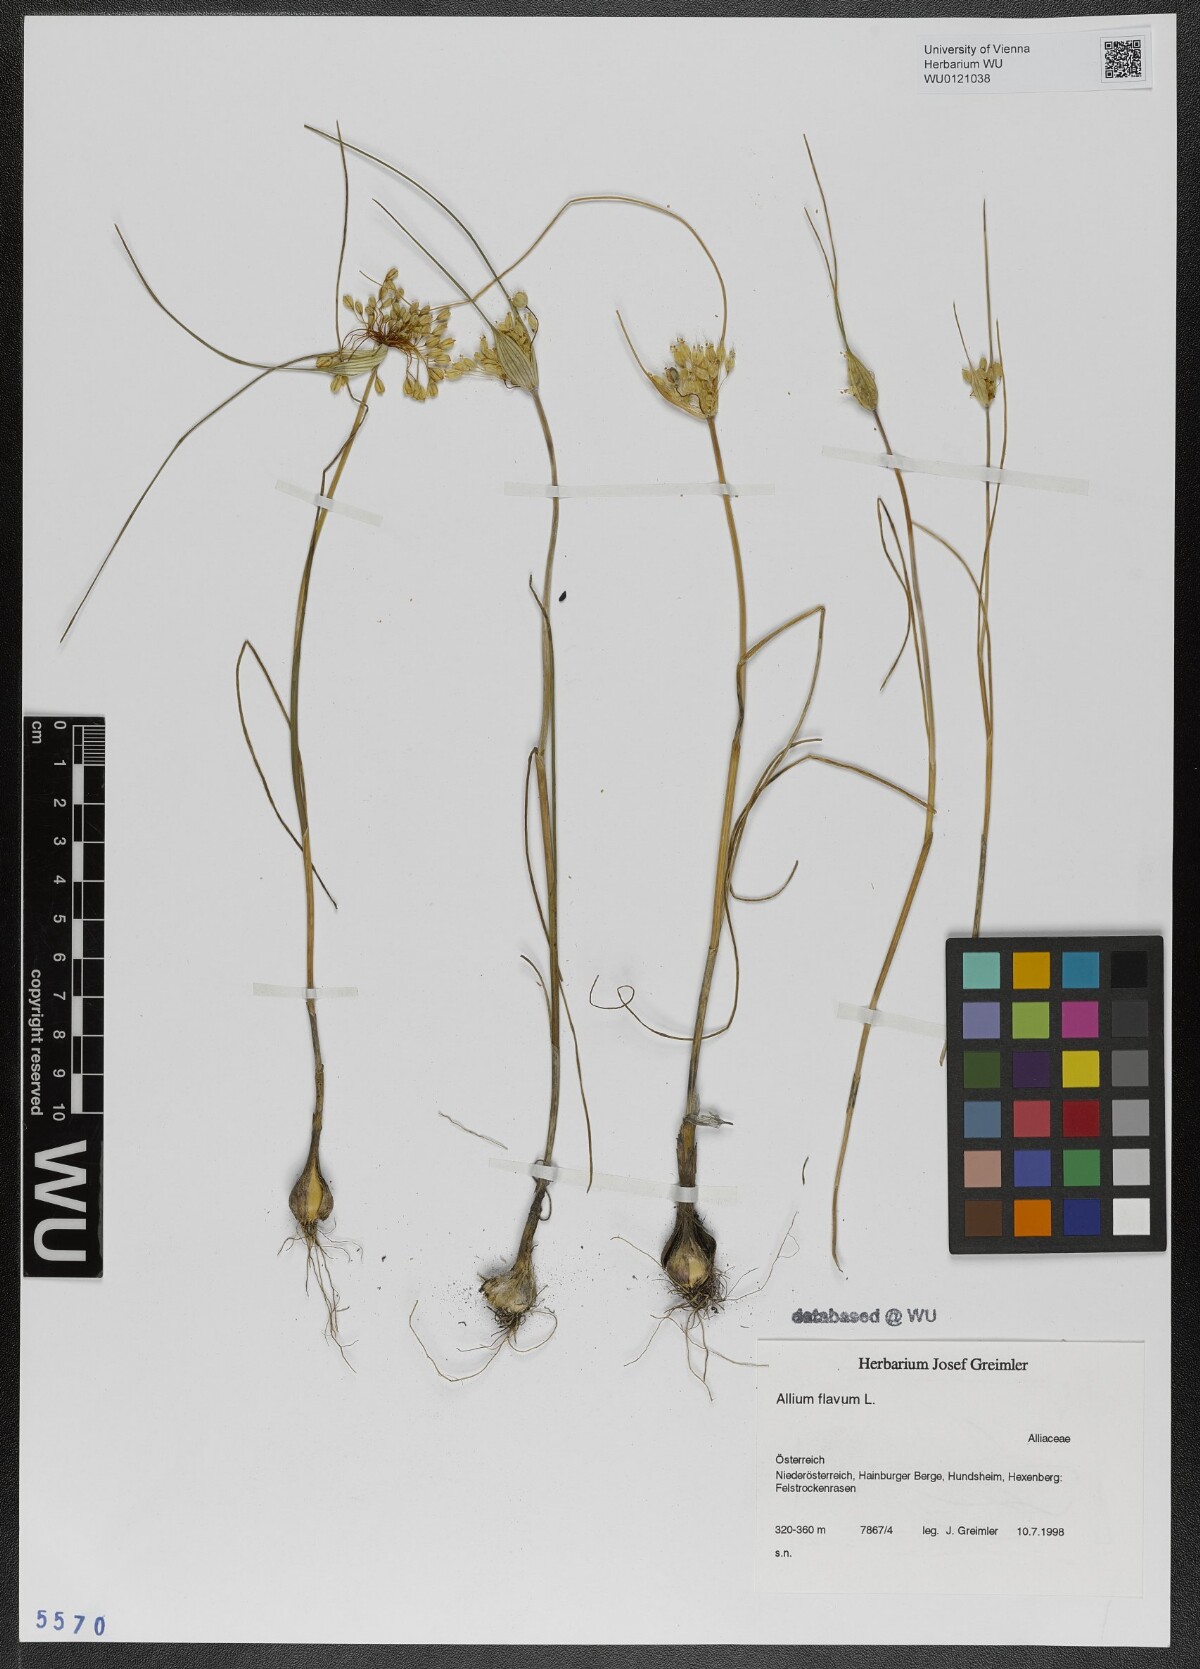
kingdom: Plantae
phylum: Tracheophyta
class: Liliopsida
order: Asparagales
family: Amaryllidaceae
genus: Allium
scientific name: Allium flavum
